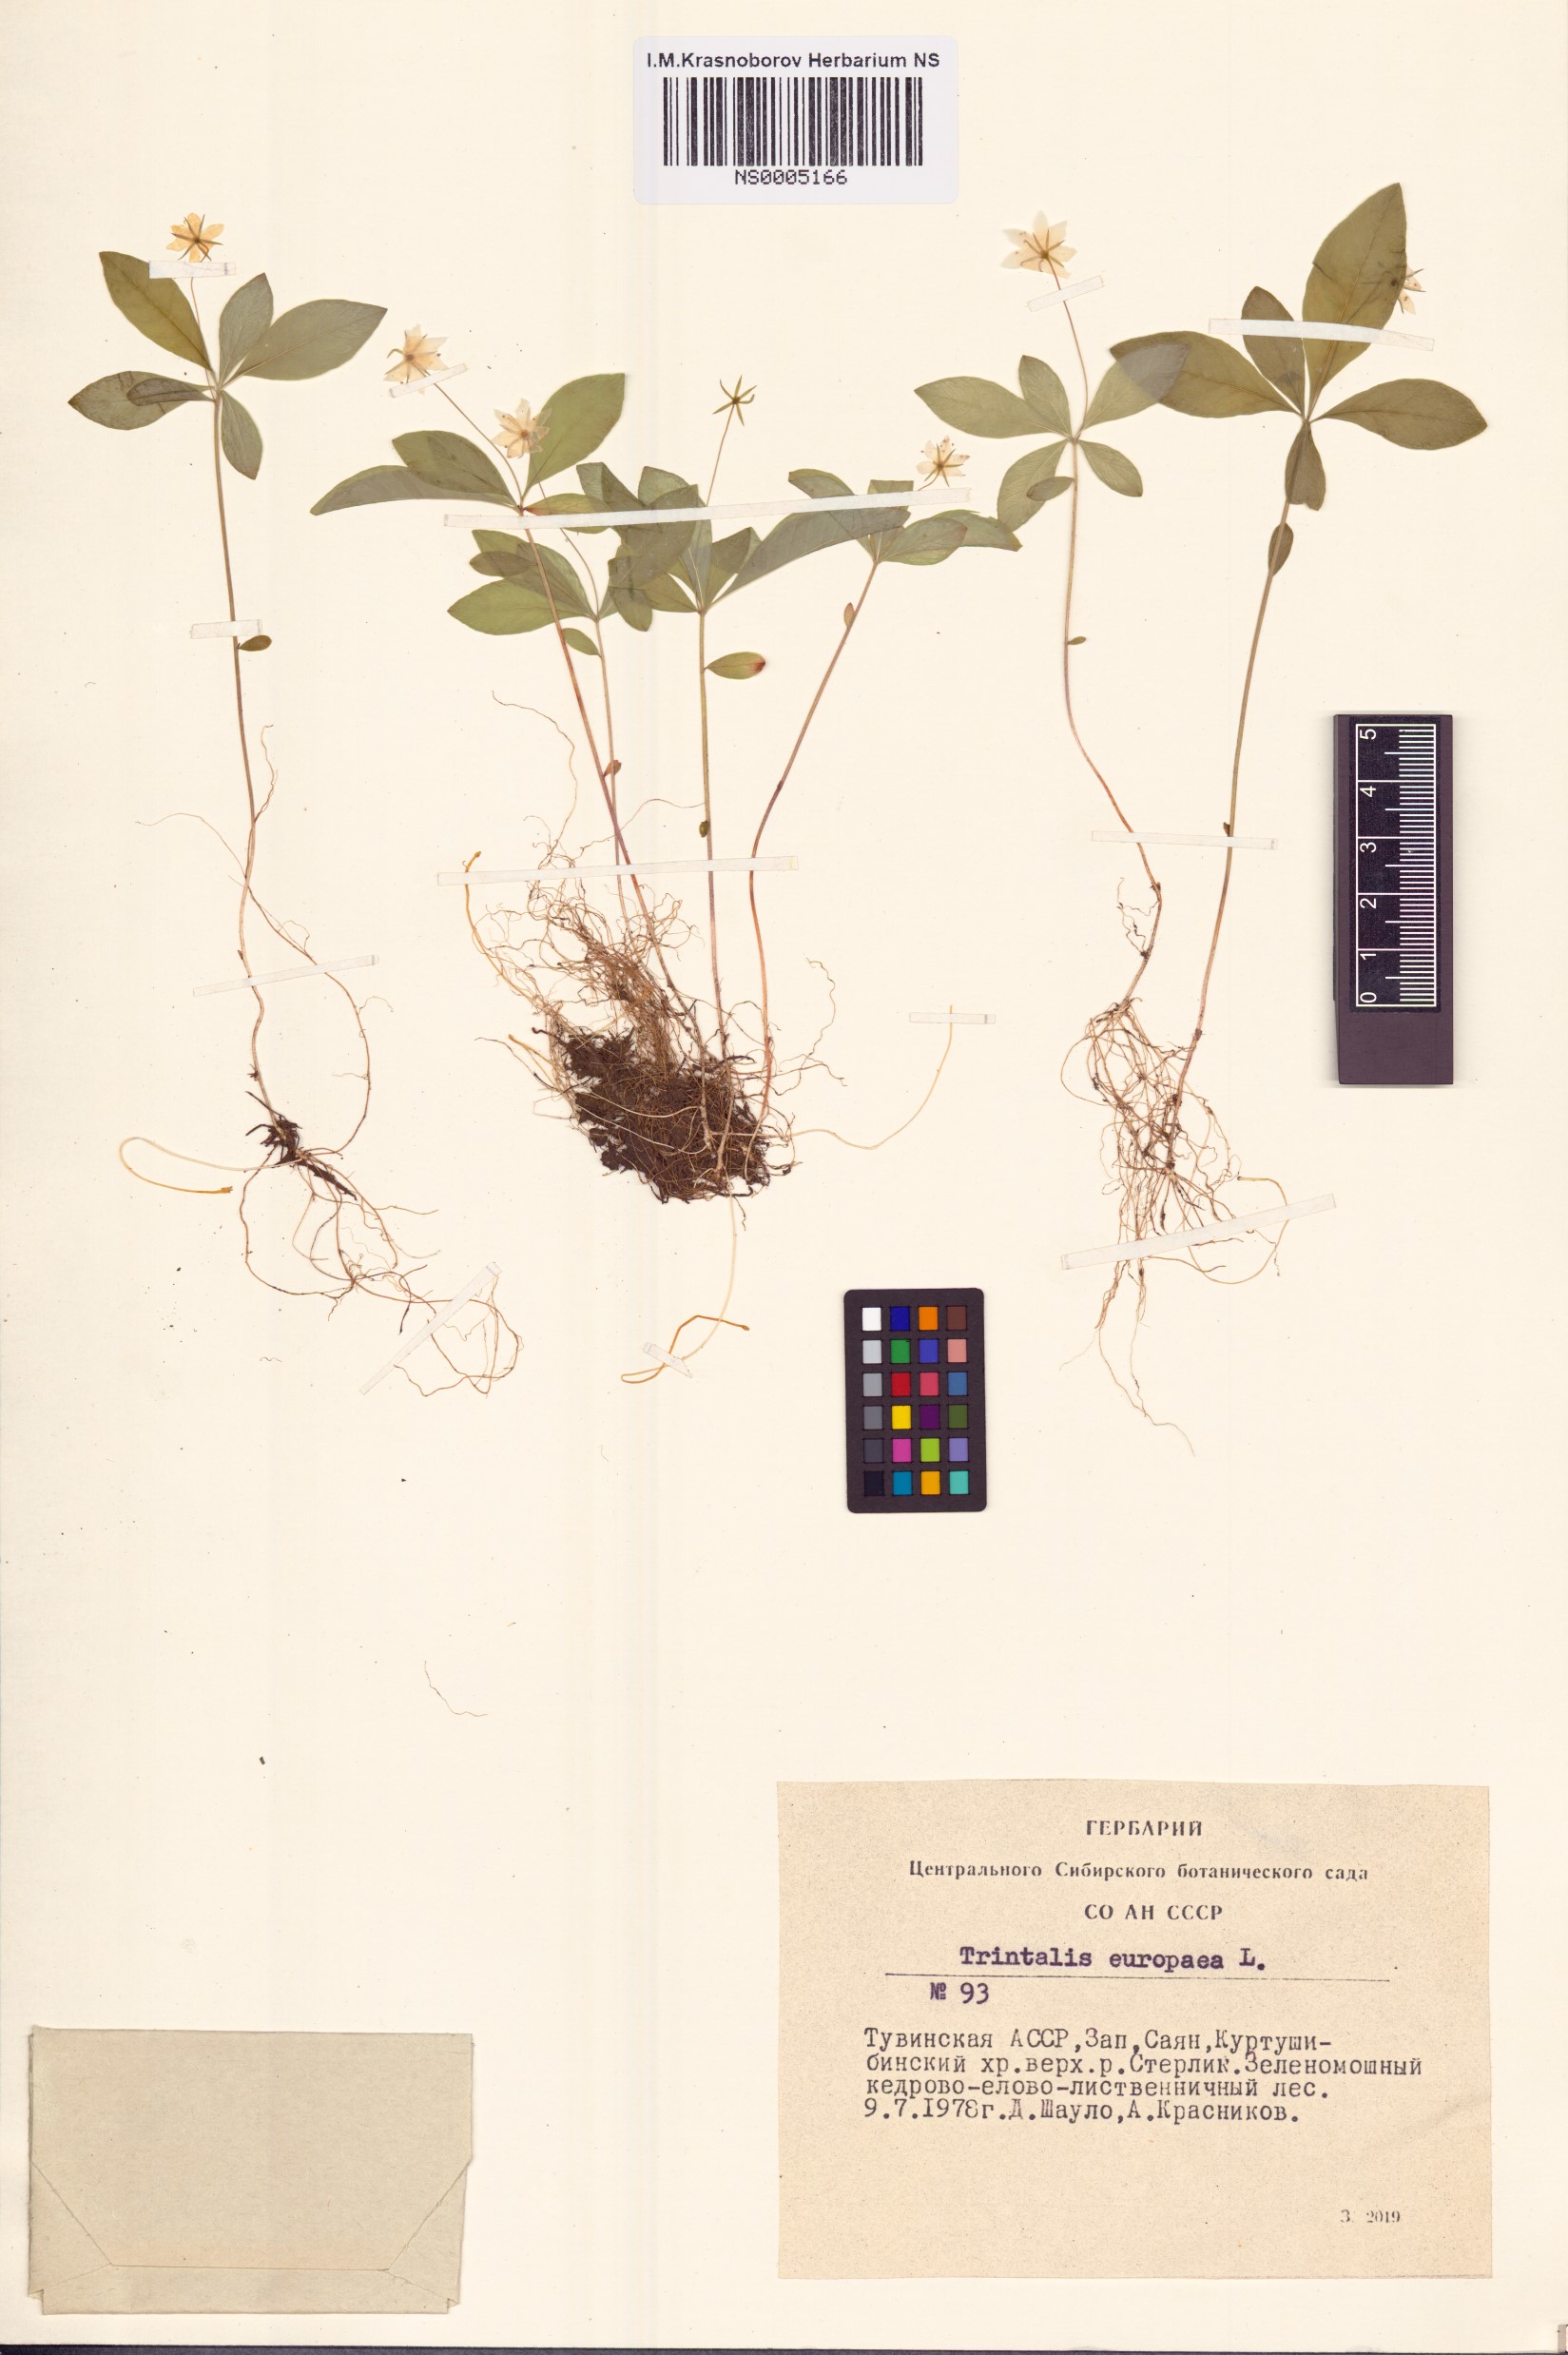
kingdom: Plantae
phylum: Tracheophyta
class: Magnoliopsida
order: Ericales
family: Primulaceae
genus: Lysimachia
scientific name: Lysimachia europaea
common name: Arctic starflower
